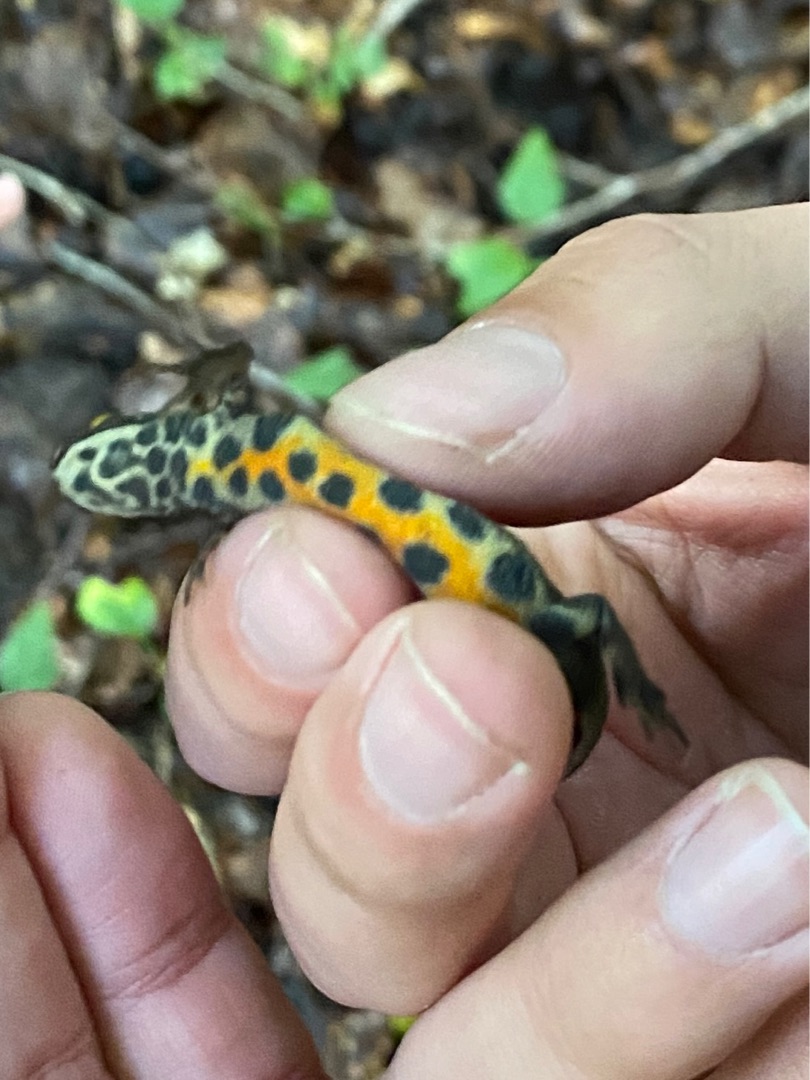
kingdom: Animalia
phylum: Chordata
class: Amphibia
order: Caudata
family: Salamandridae
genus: Lissotriton
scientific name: Lissotriton vulgaris
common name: Lille vandsalamander
